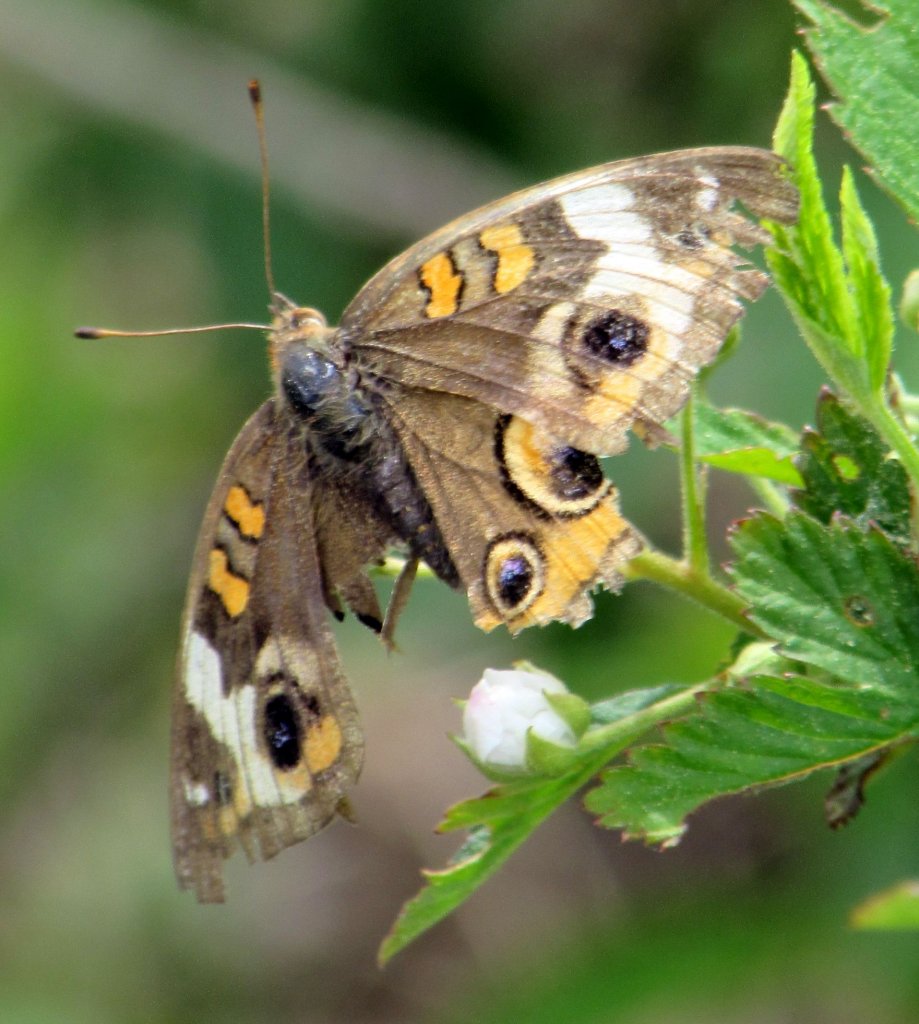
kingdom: Animalia
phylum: Arthropoda
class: Insecta
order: Lepidoptera
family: Nymphalidae
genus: Junonia
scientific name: Junonia coenia
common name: Common Buckeye
